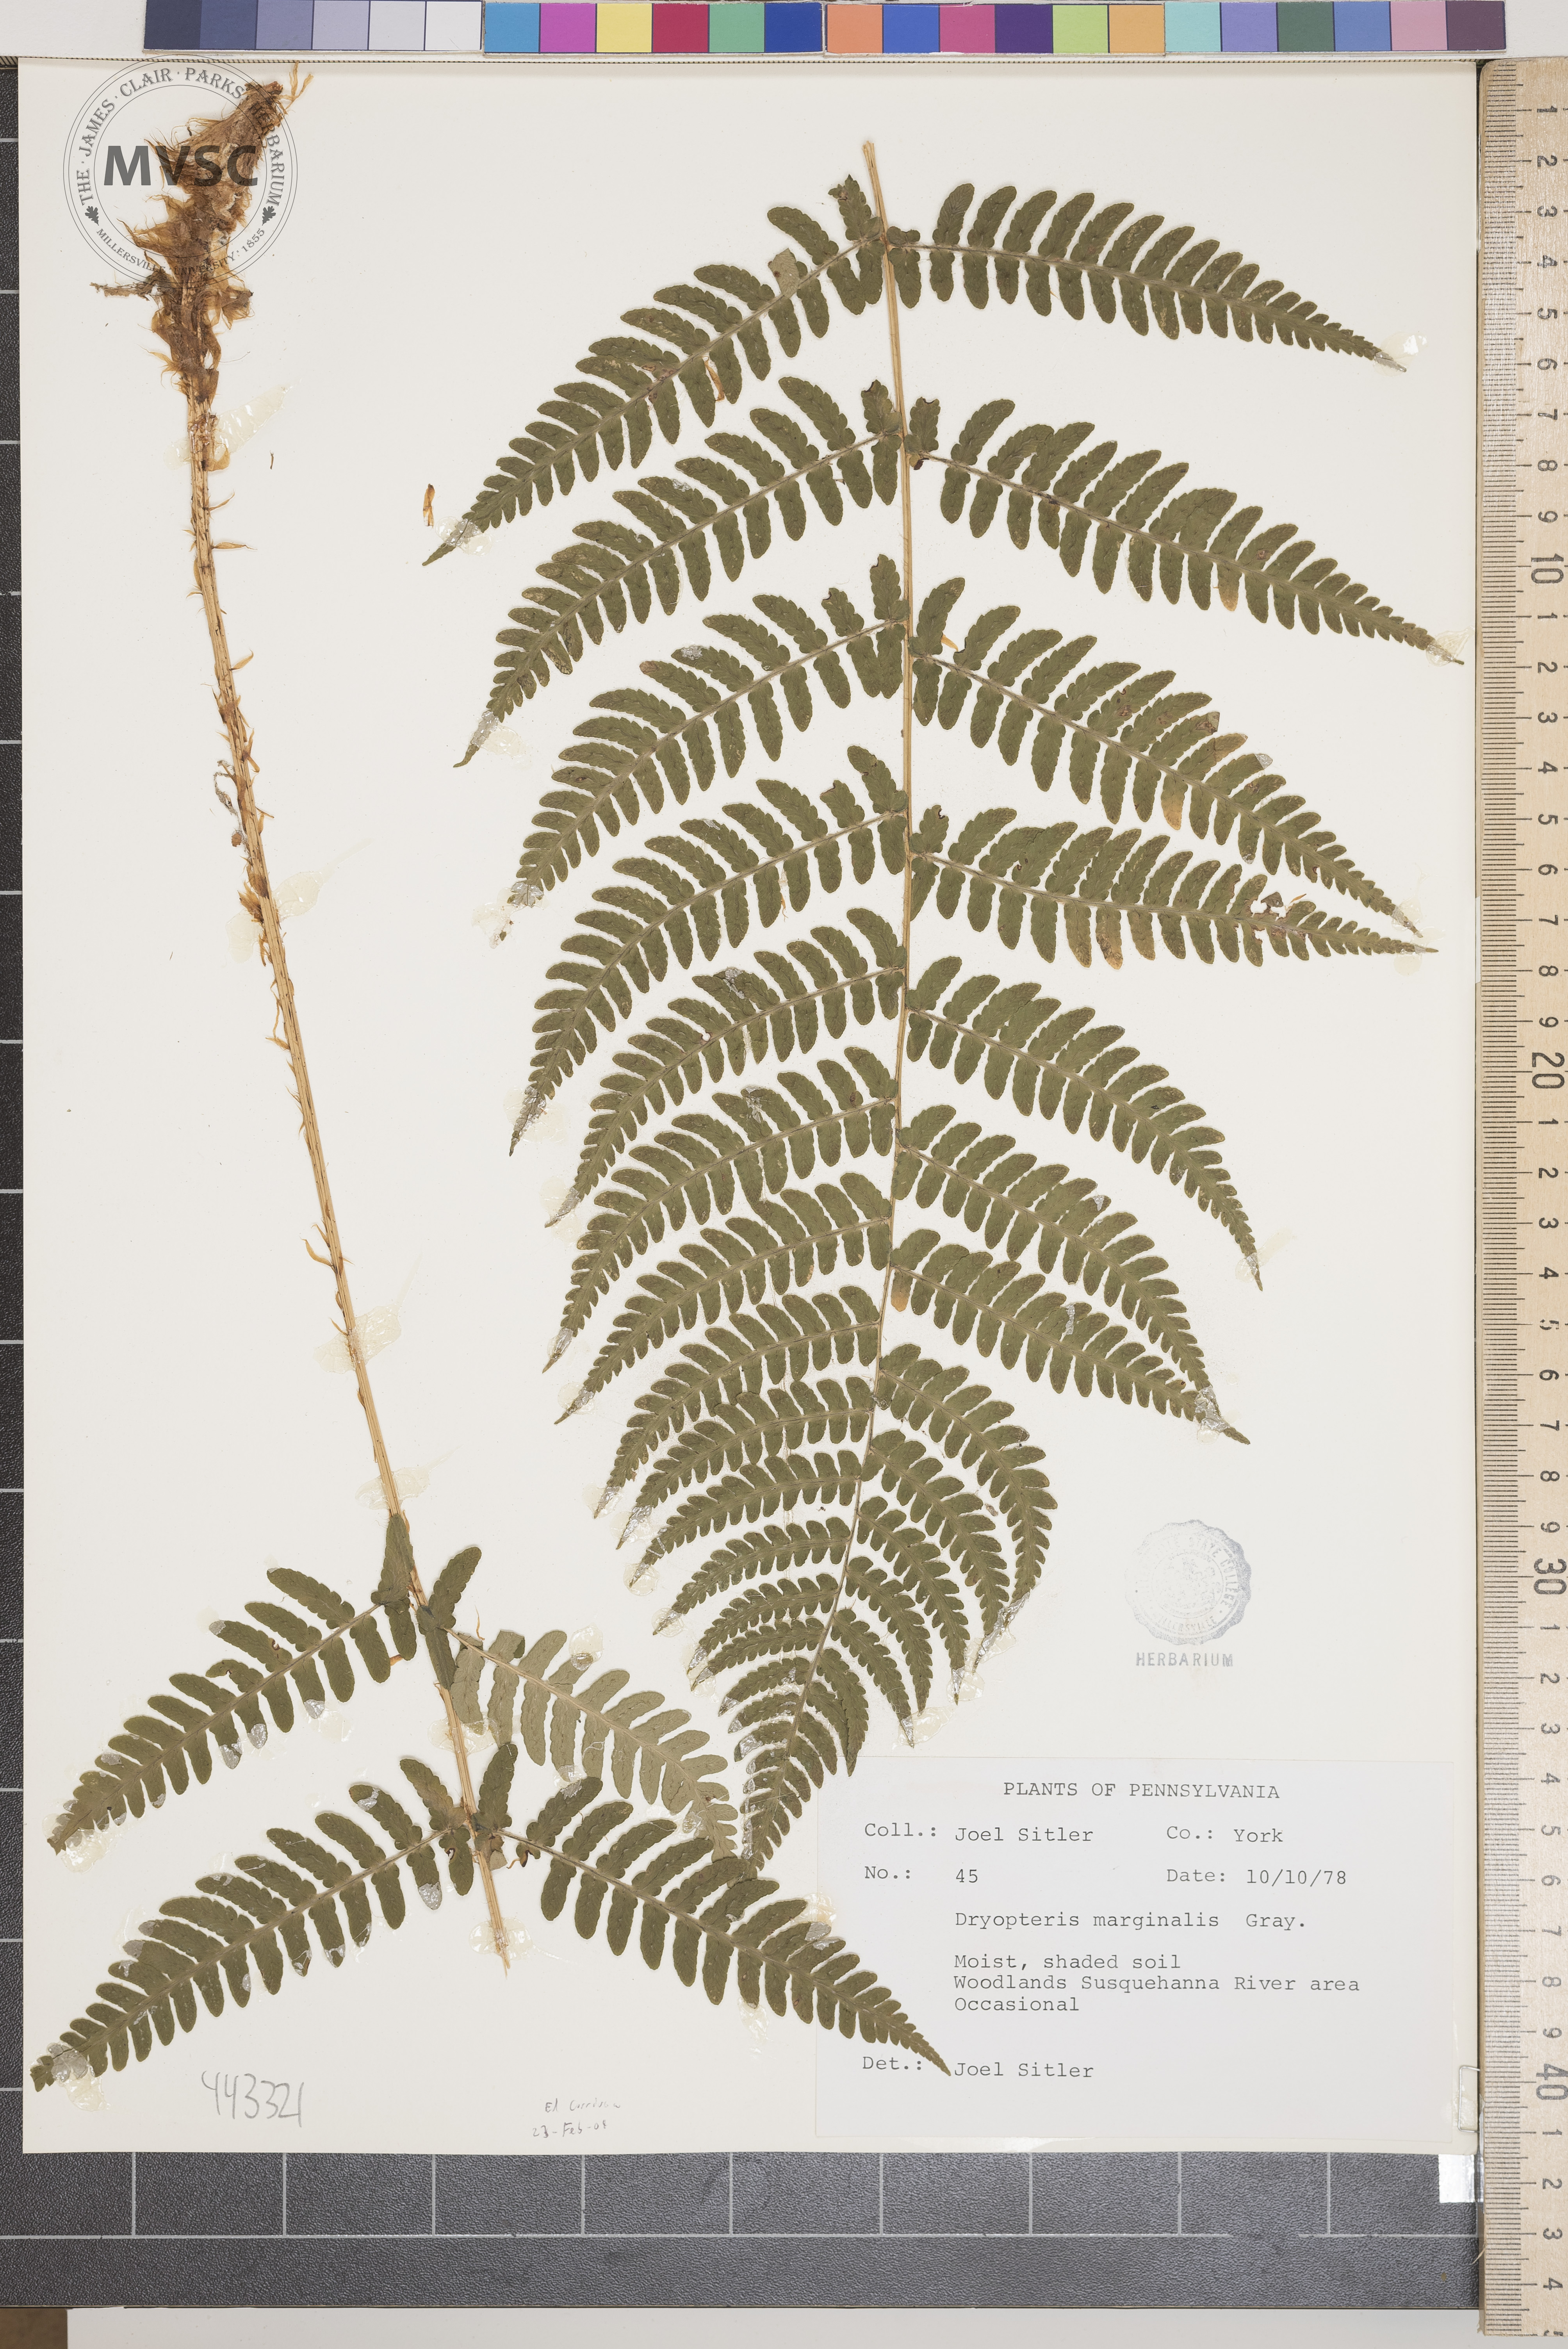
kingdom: Plantae
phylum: Tracheophyta
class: Polypodiopsida
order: Polypodiales
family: Dryopteridaceae
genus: Dryopteris
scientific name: Dryopteris marginalis
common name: Marginal wood fern
